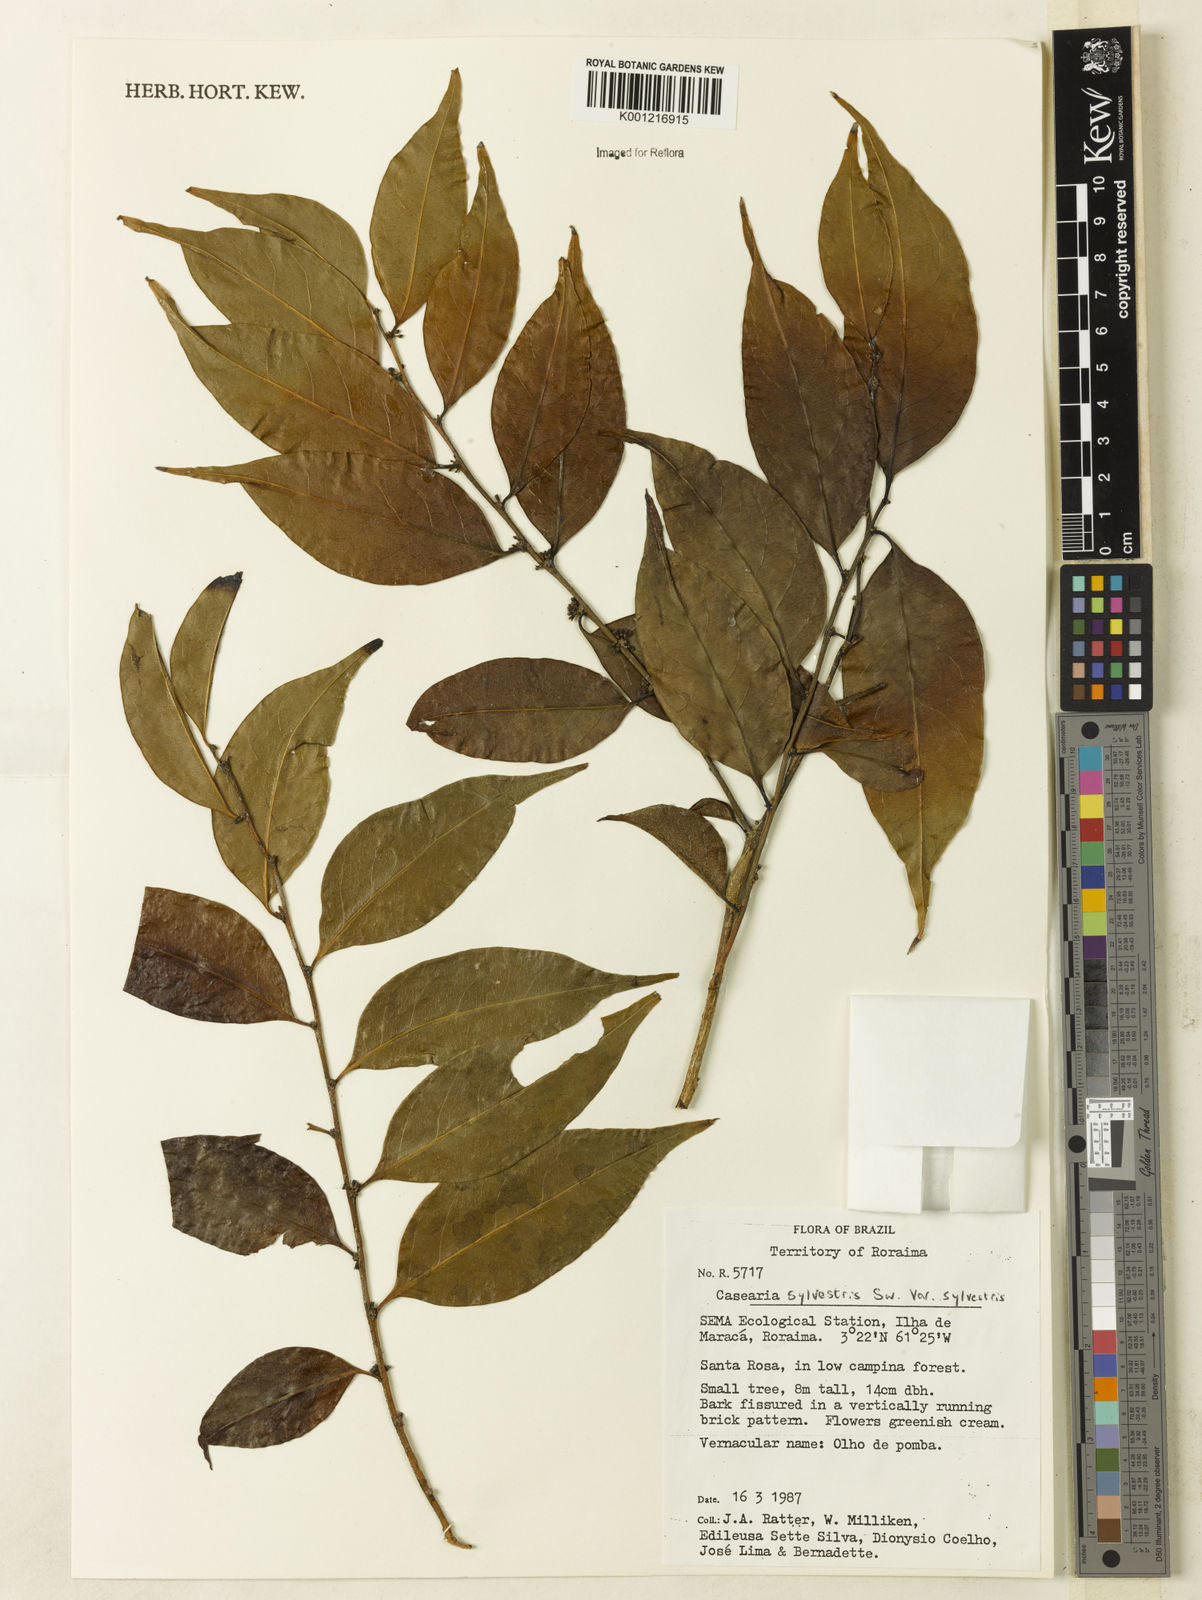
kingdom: Plantae
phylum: Tracheophyta
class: Magnoliopsida
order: Malpighiales
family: Salicaceae
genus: Casearia
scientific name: Casearia sylvestris
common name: Wild sage
